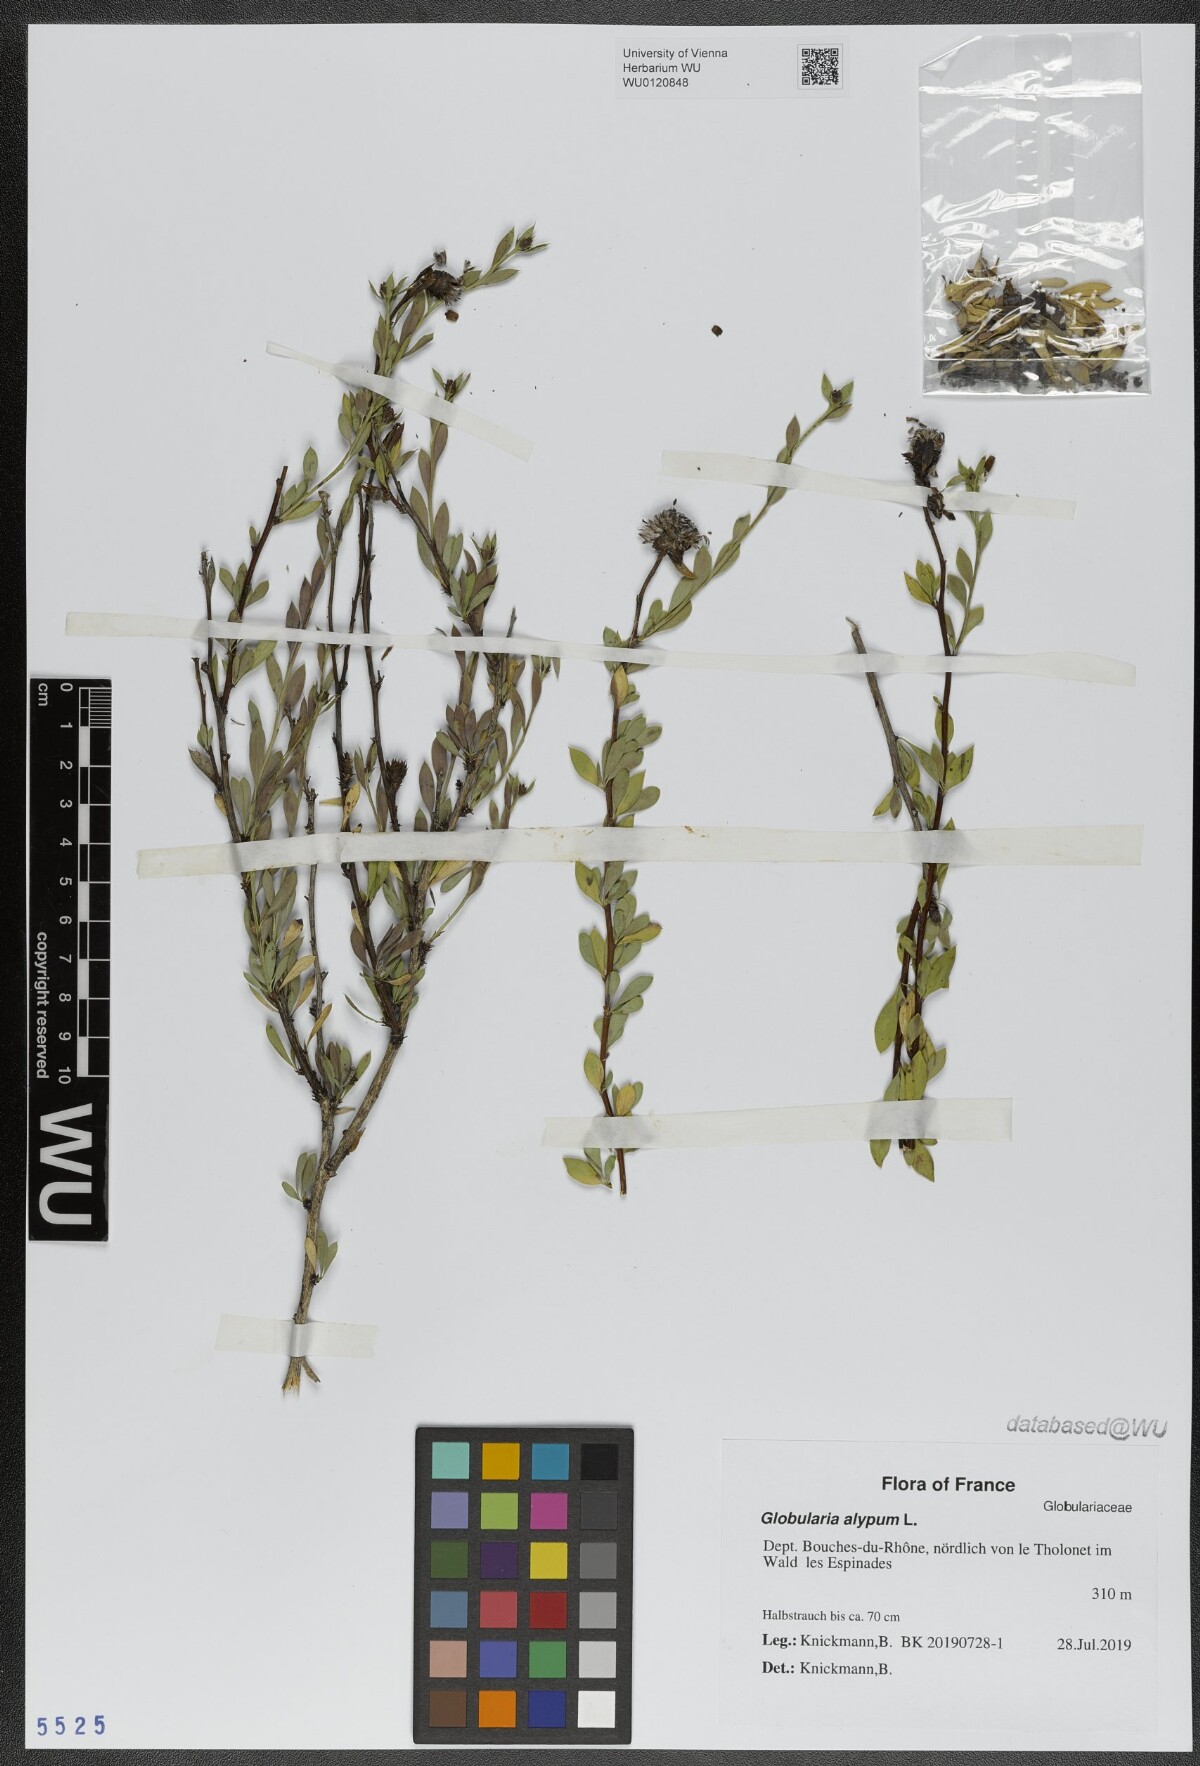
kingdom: Plantae
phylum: Tracheophyta
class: Magnoliopsida
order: Lamiales
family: Plantaginaceae
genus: Globularia
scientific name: Globularia alypum
